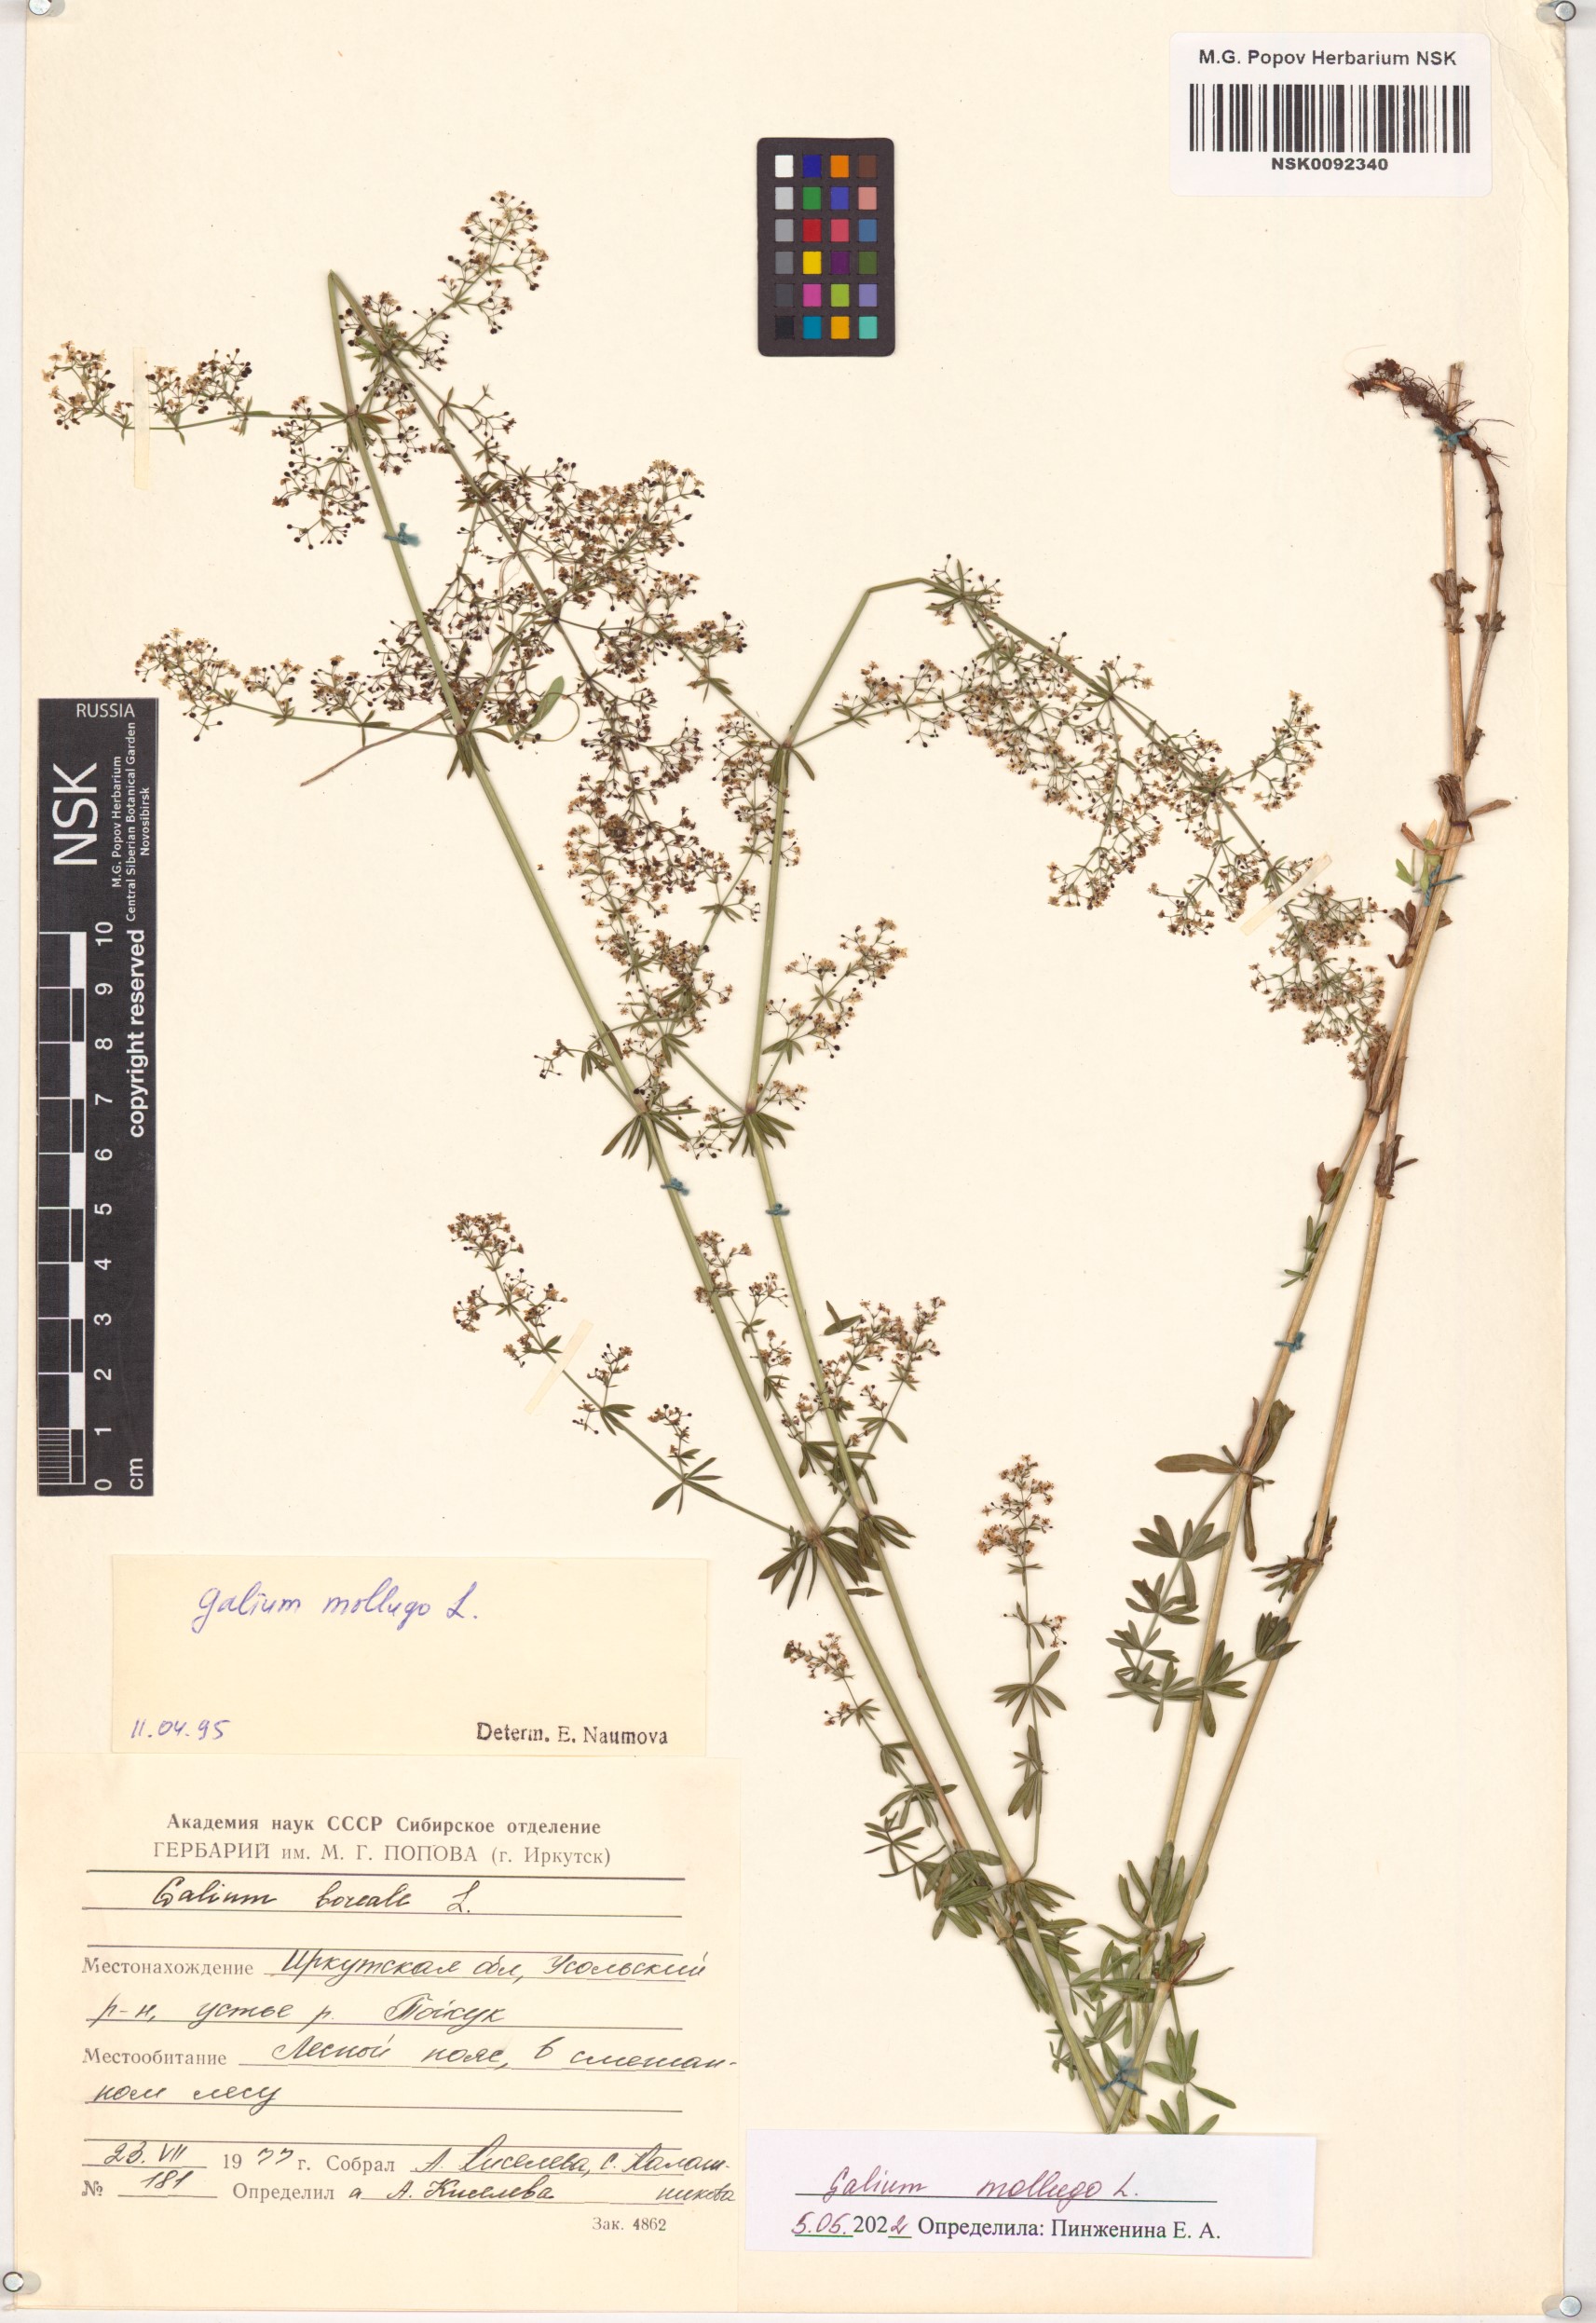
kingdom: Plantae
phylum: Tracheophyta
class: Magnoliopsida
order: Gentianales
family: Rubiaceae
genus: Galium
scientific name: Galium mollugo
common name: Hedge bedstraw
